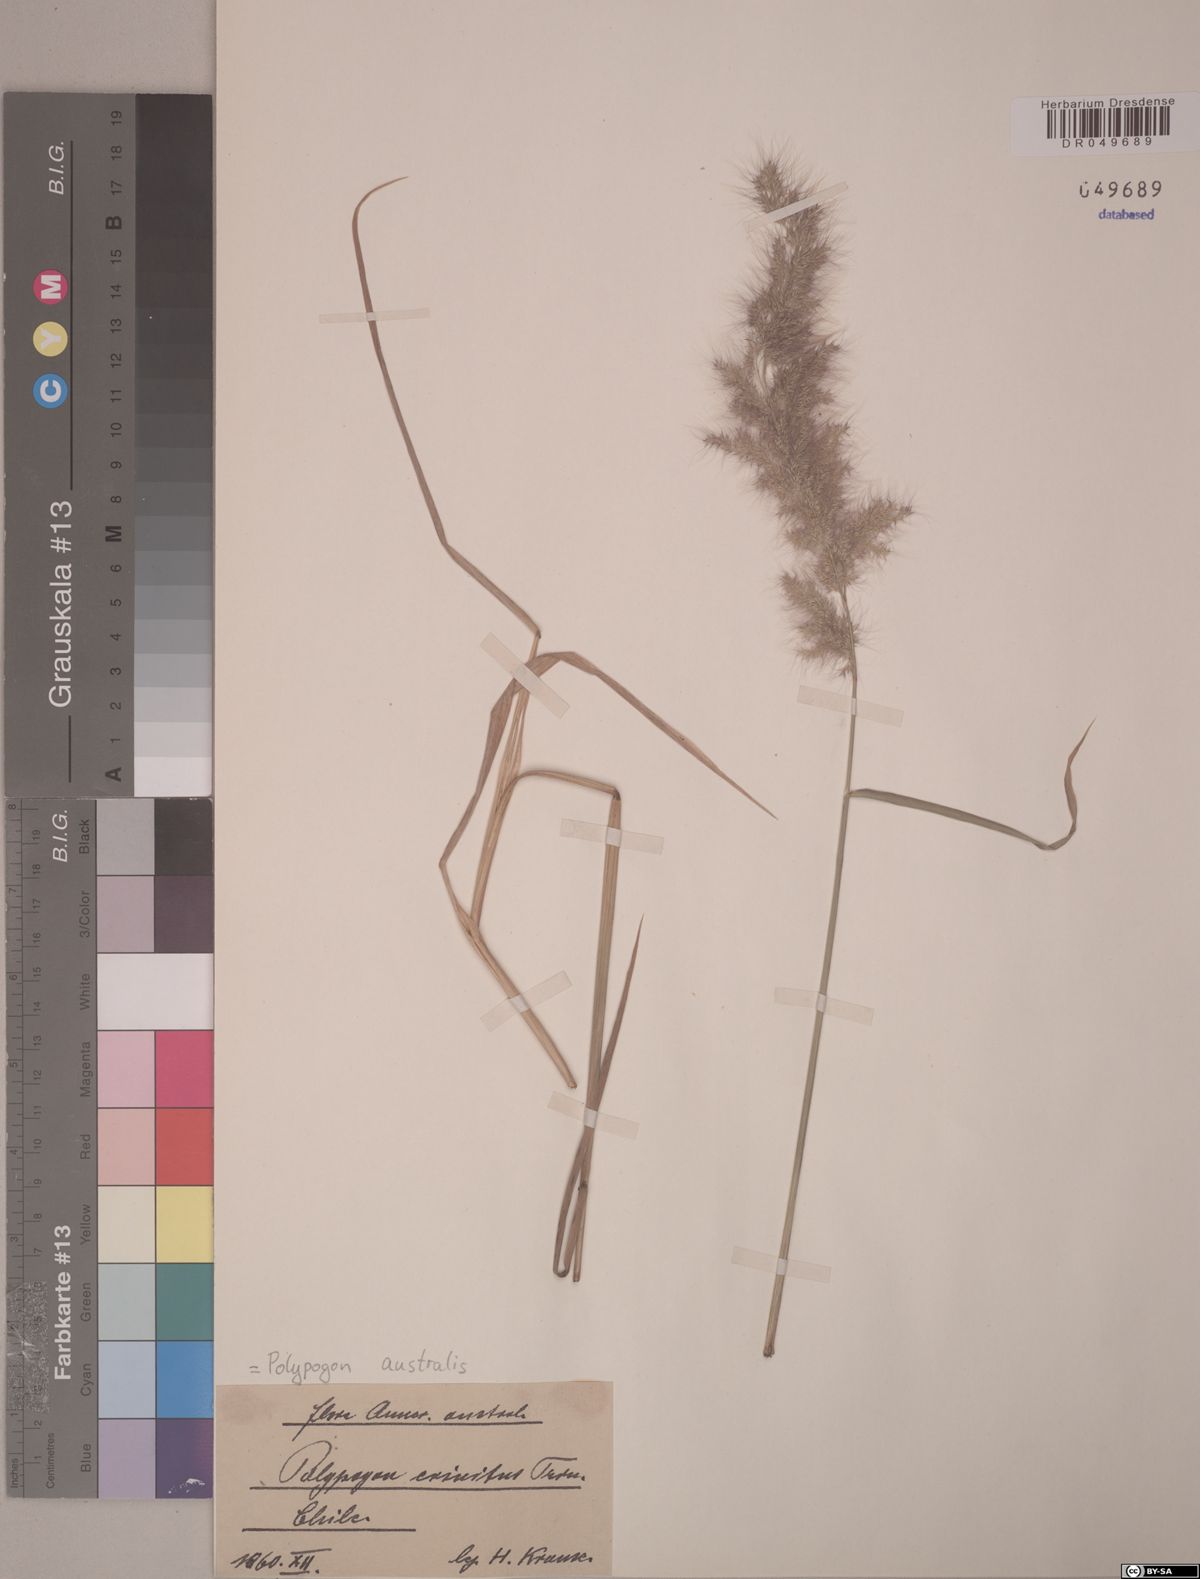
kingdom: Plantae
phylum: Tracheophyta
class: Liliopsida
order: Poales
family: Poaceae
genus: Polypogon
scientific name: Polypogon australis
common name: Chilean rabbitsfoot grass
